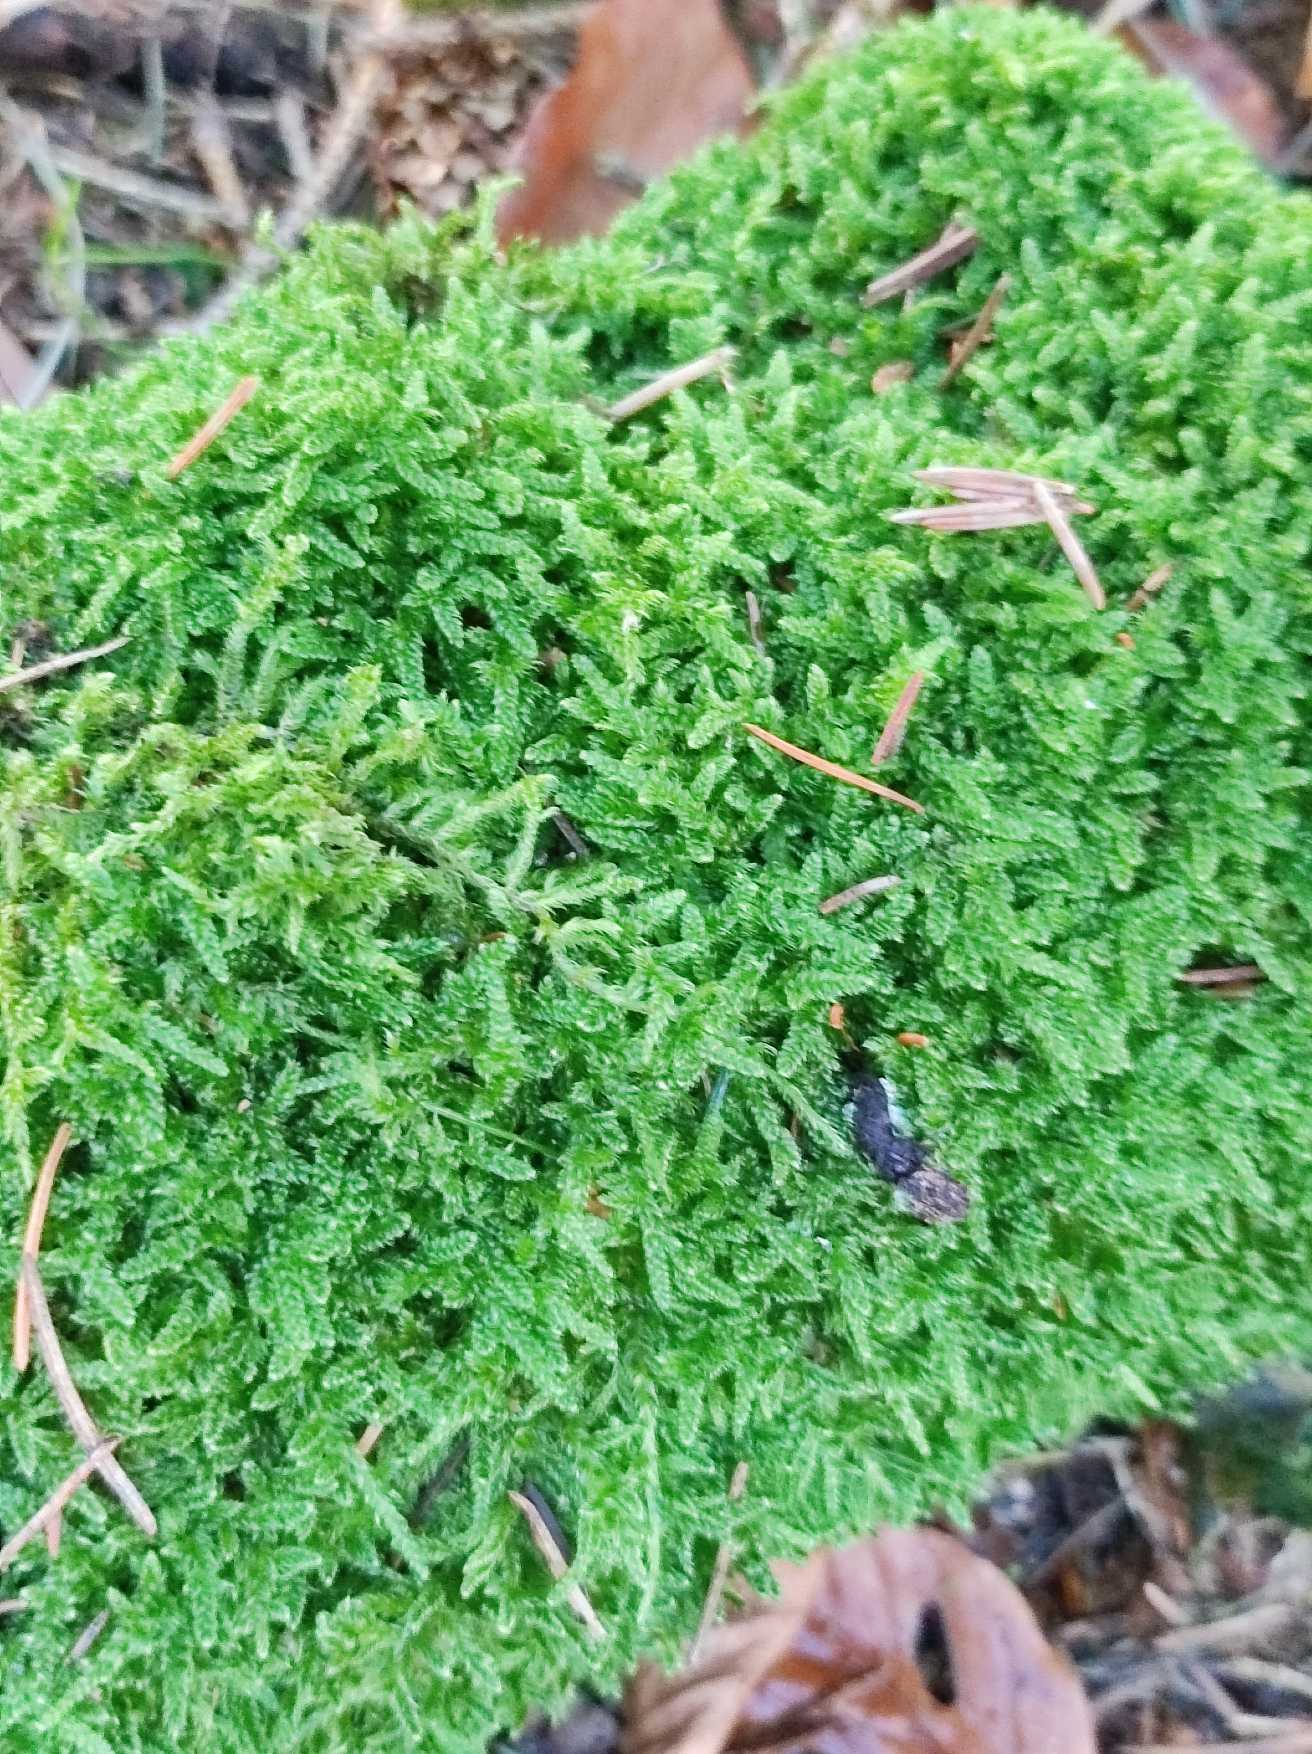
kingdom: Plantae
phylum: Bryophyta
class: Bryopsida
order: Hypnales
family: Hypnaceae
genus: Hypnum
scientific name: Hypnum cupressiforme
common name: Almindelig cypresmos
